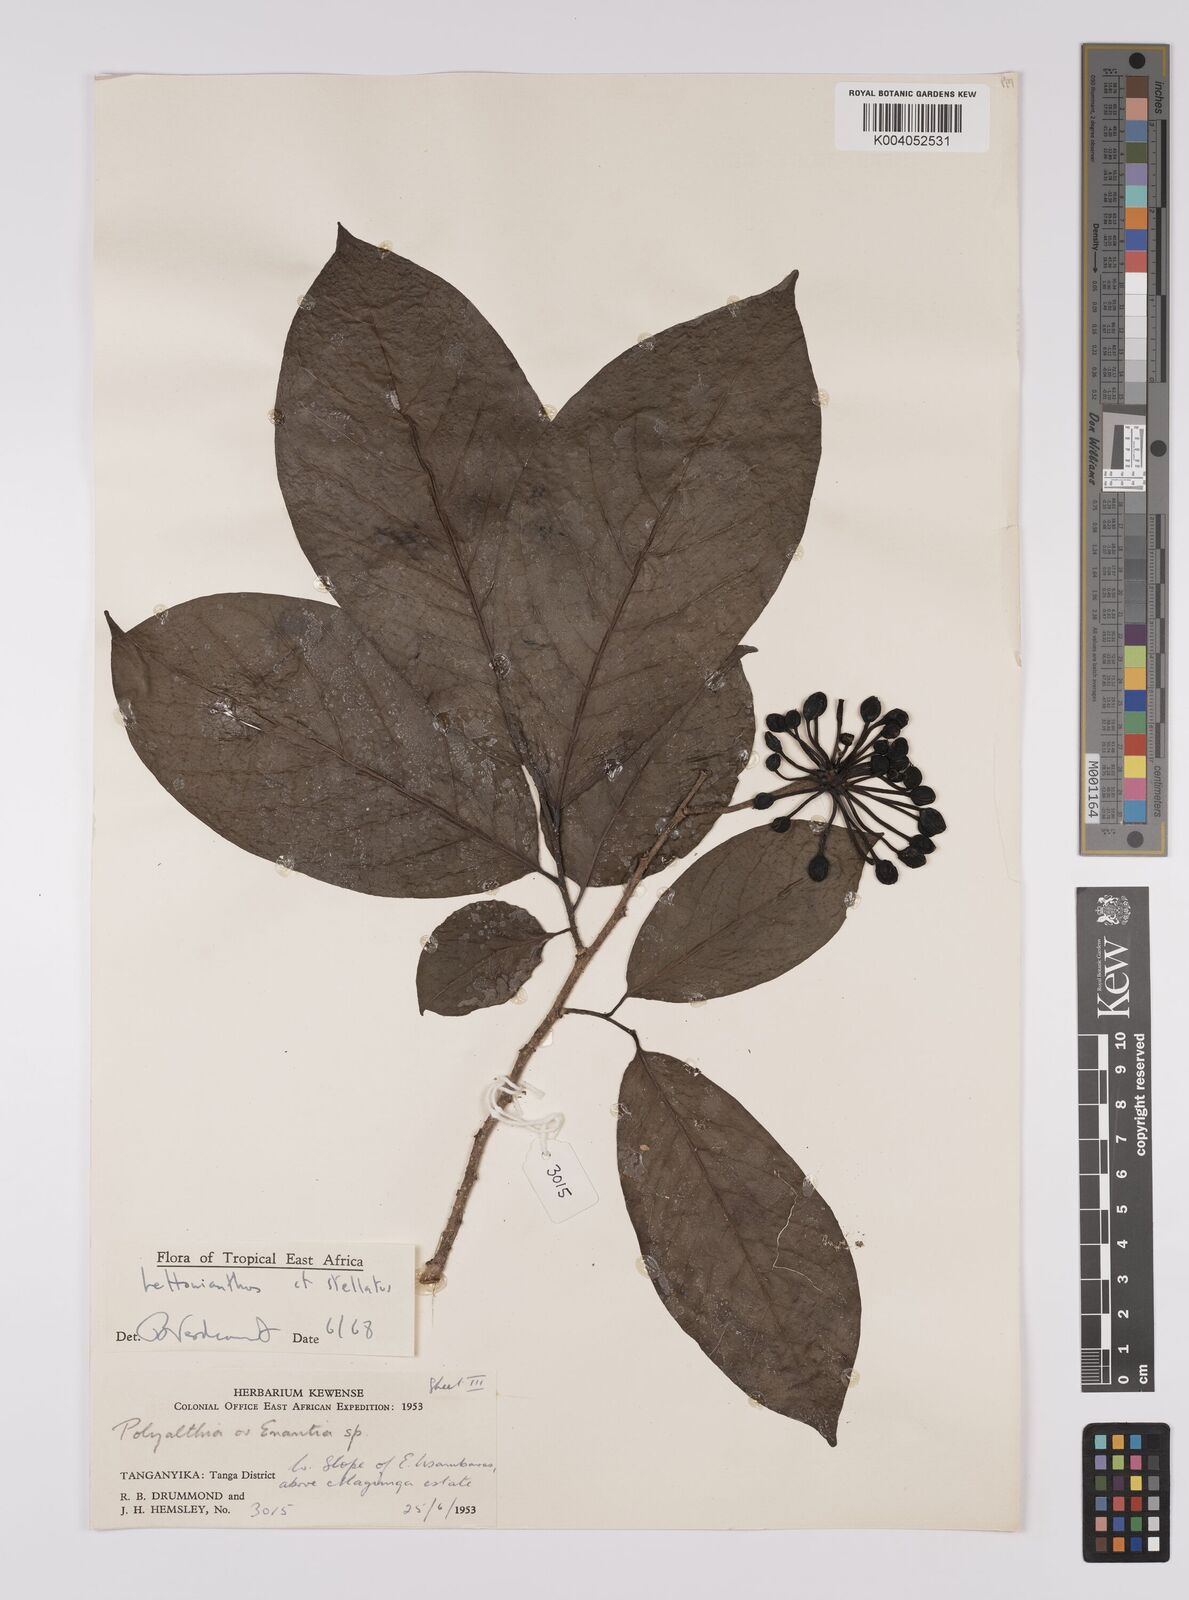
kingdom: Plantae
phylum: Tracheophyta
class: Magnoliopsida
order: Magnoliales
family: Annonaceae
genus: Lettowianthus
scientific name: Lettowianthus
